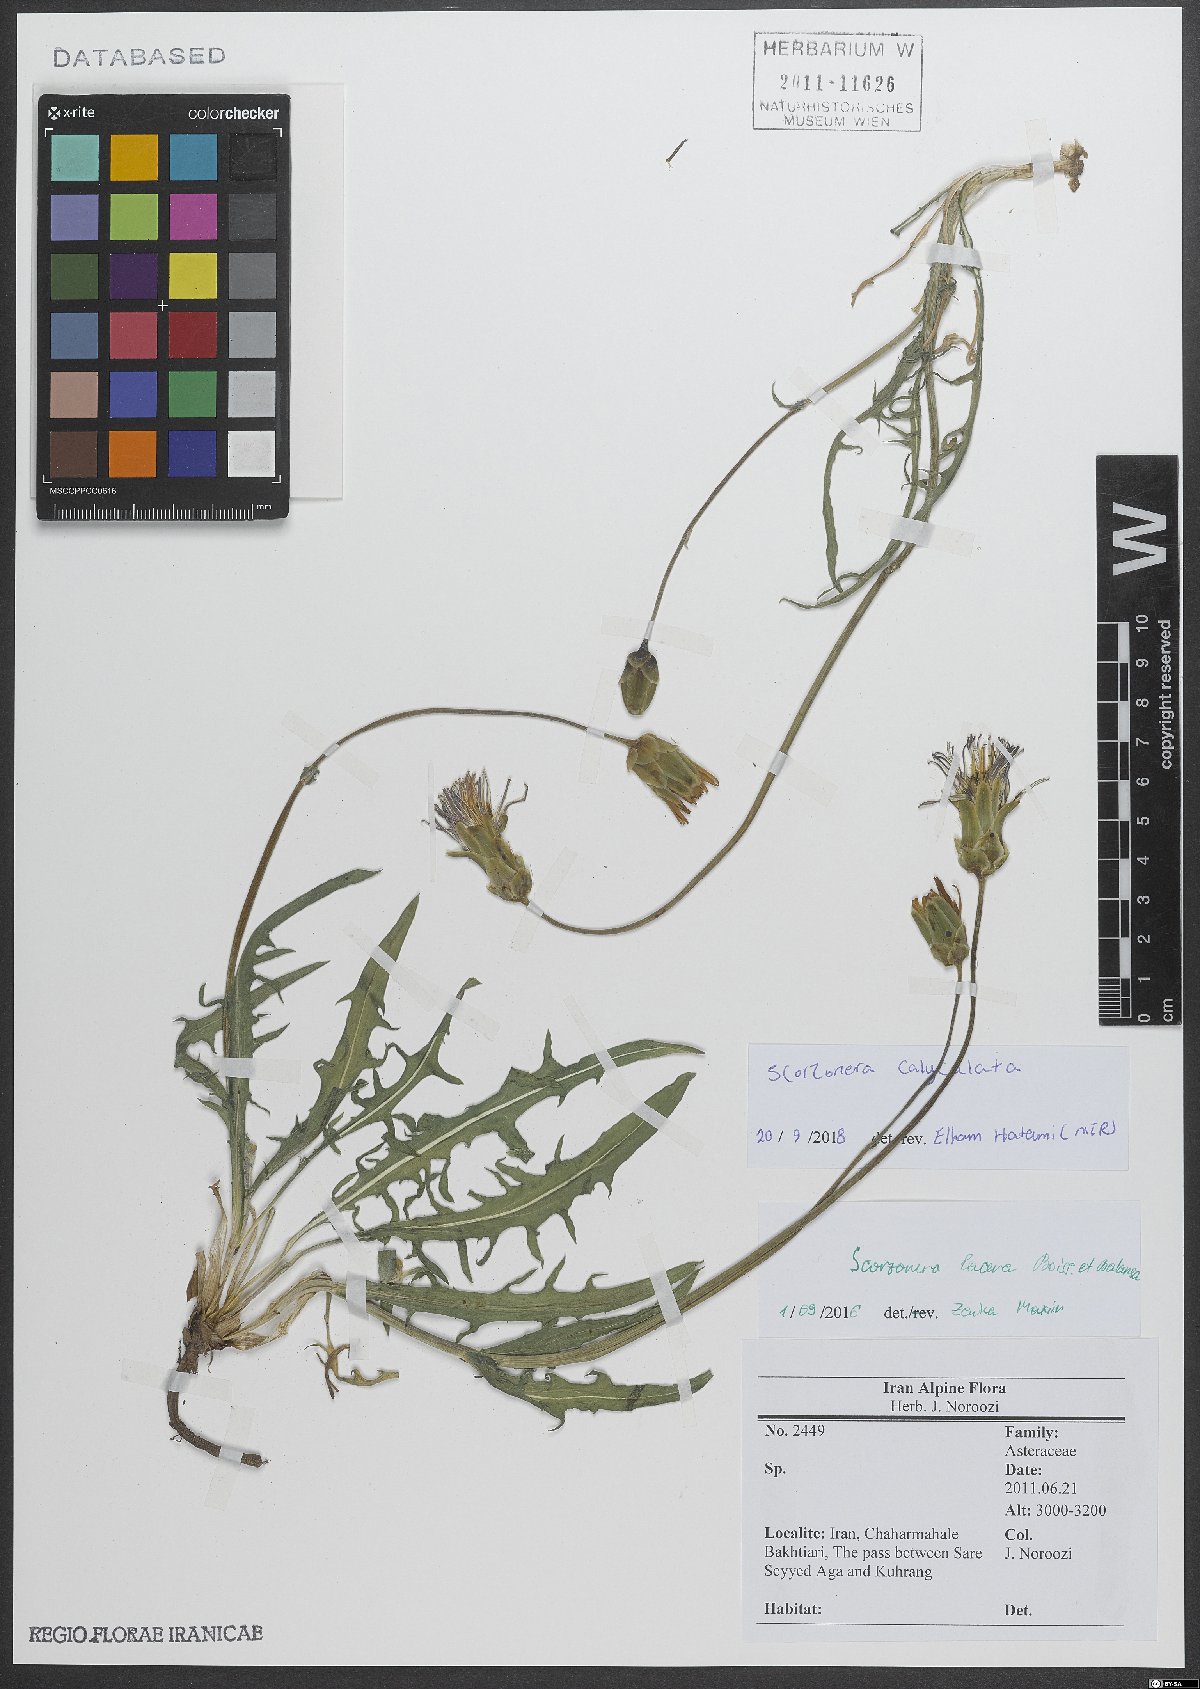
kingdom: Plantae
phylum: Tracheophyta
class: Magnoliopsida
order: Asterales
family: Asteraceae
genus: Aslia
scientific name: Aslia calyculata
